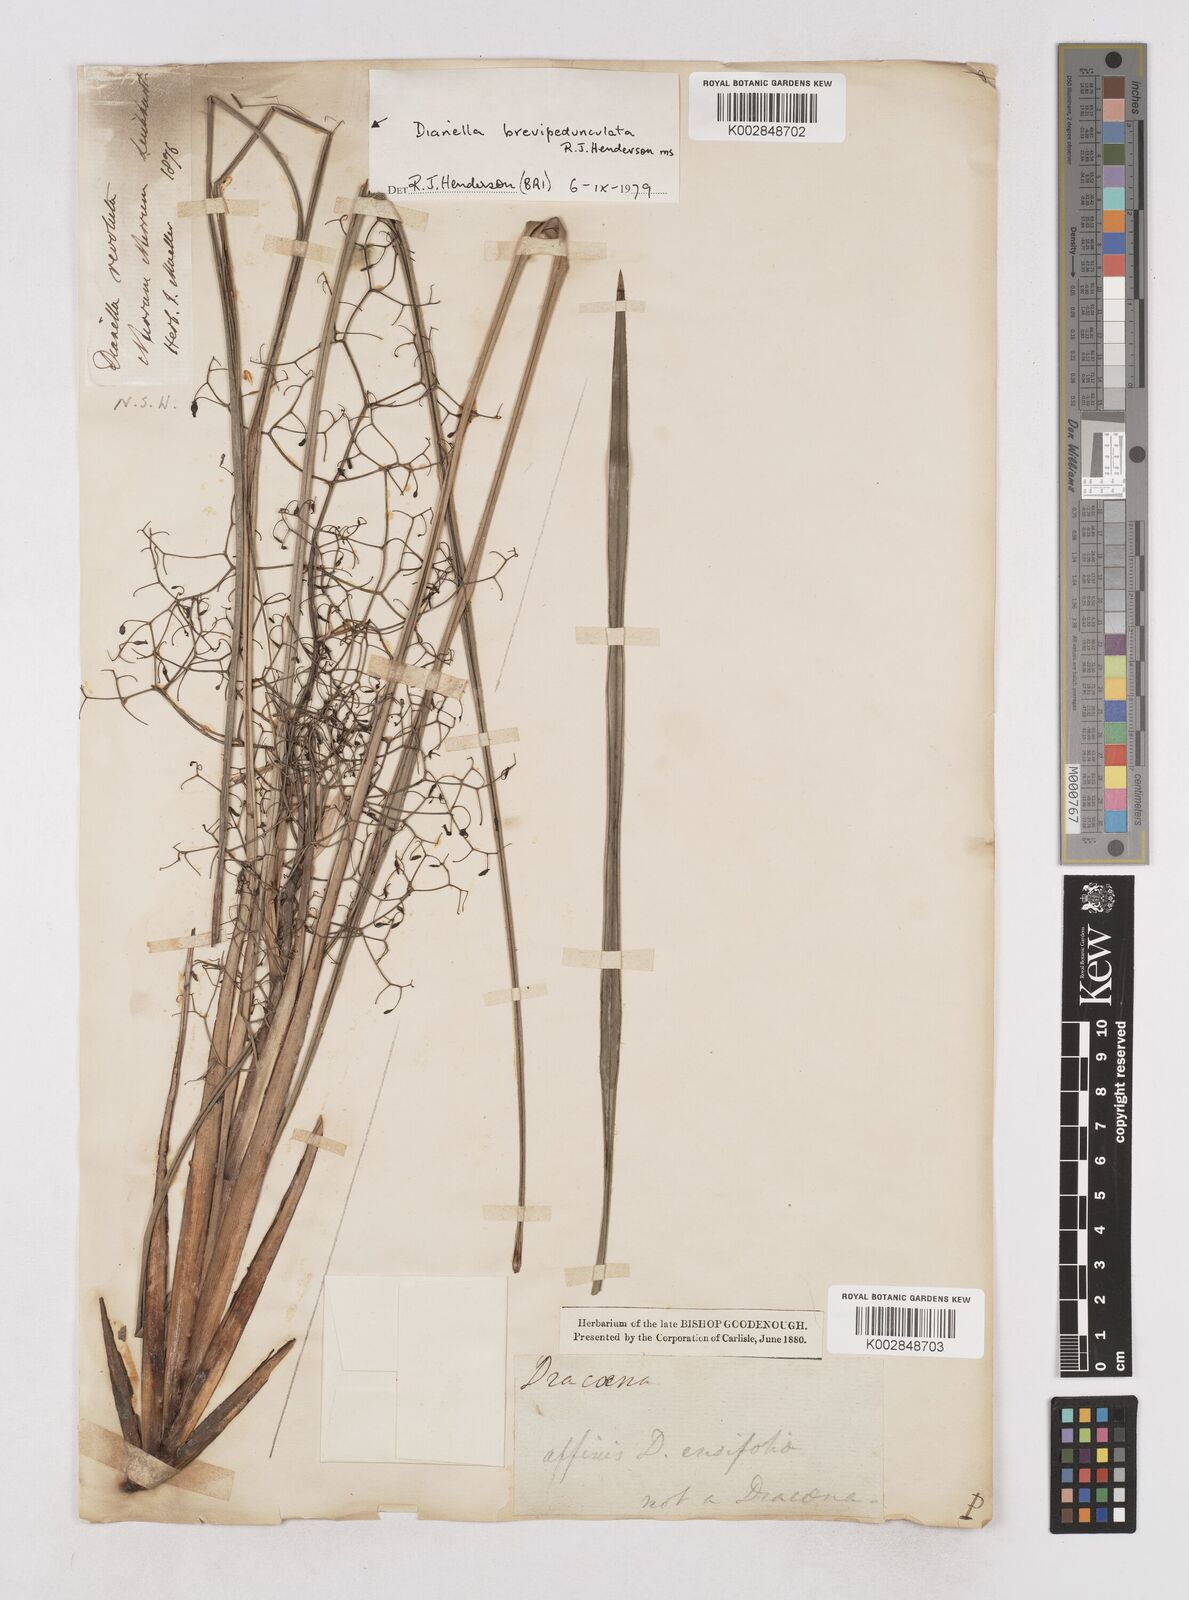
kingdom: Plantae
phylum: Tracheophyta
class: Liliopsida
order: Asparagales
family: Asphodelaceae
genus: Dianella
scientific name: Dianella brevipedunculata
